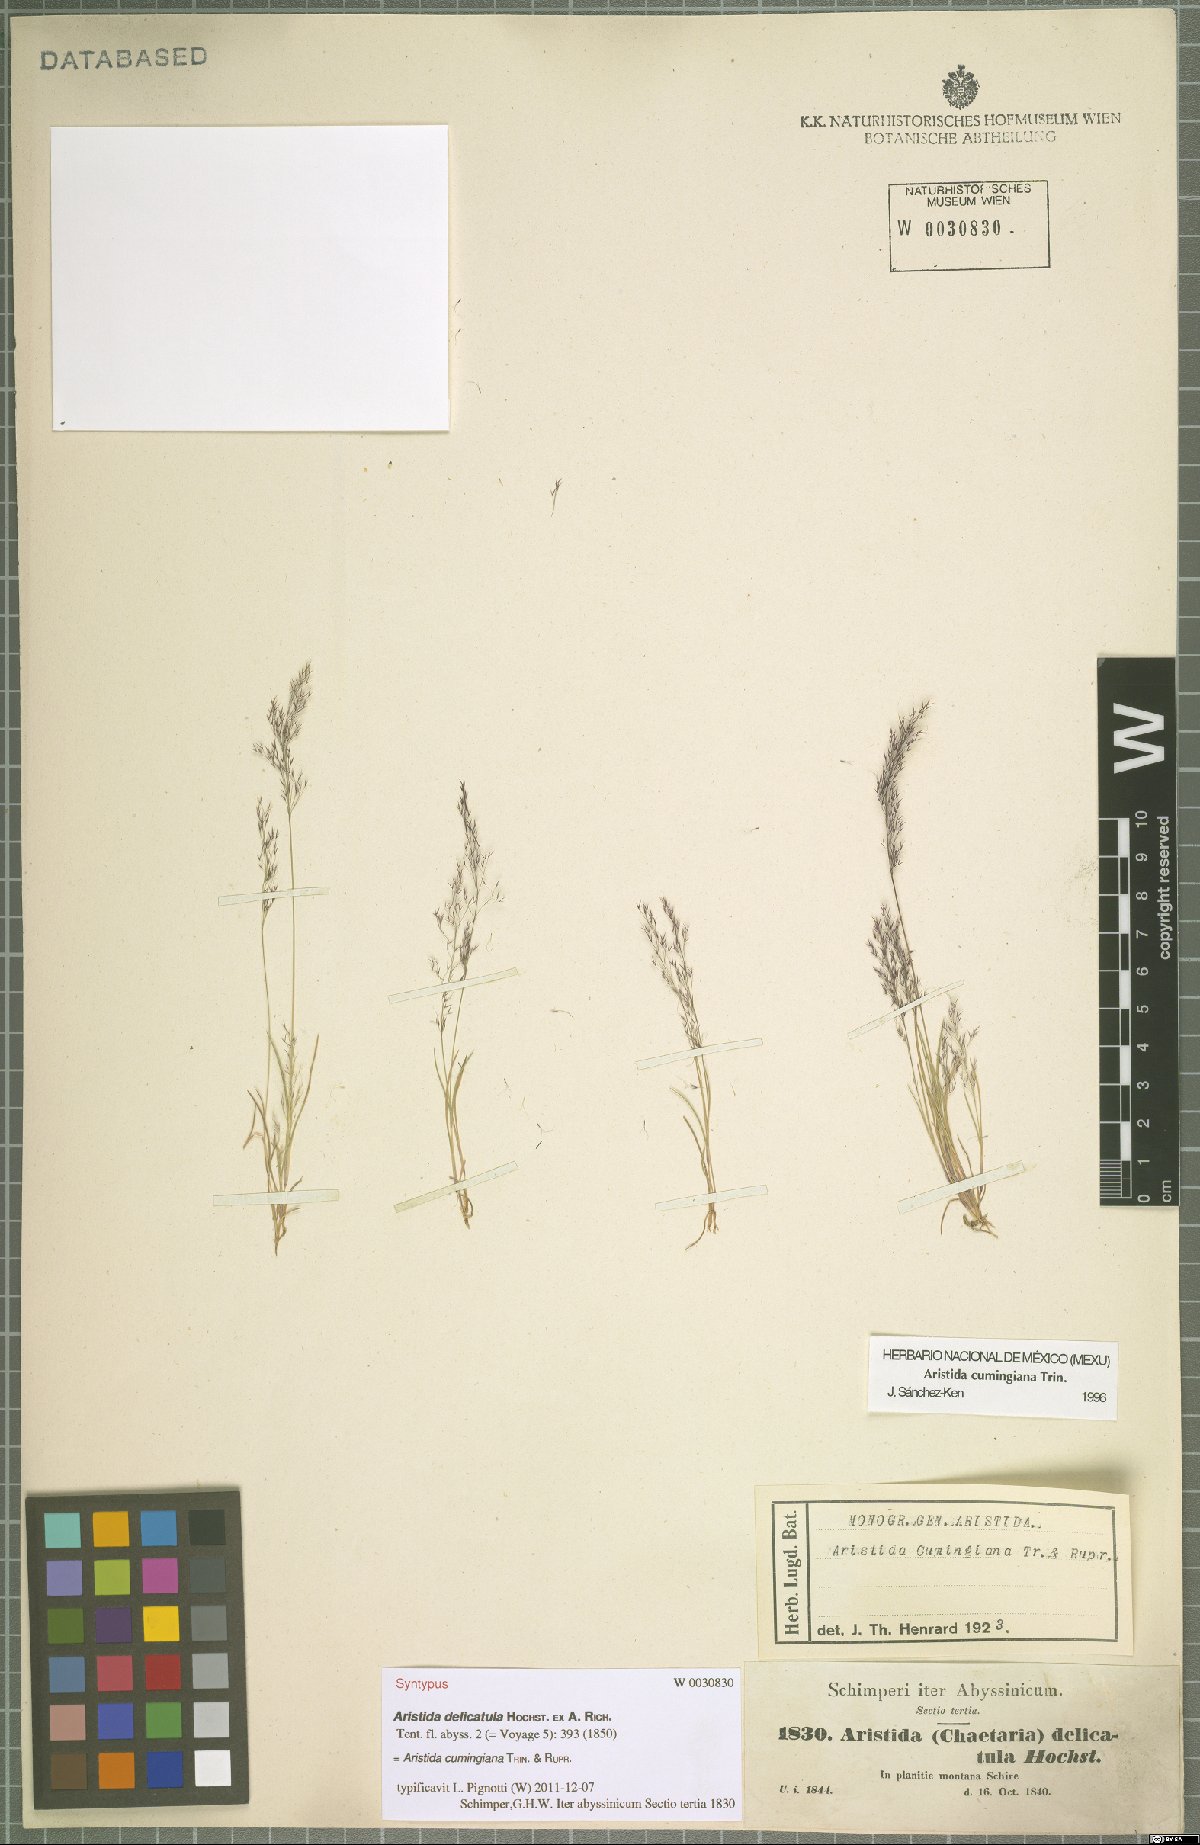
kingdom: Plantae
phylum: Tracheophyta
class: Liliopsida
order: Poales
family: Poaceae
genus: Aristida
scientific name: Aristida cumingiana
